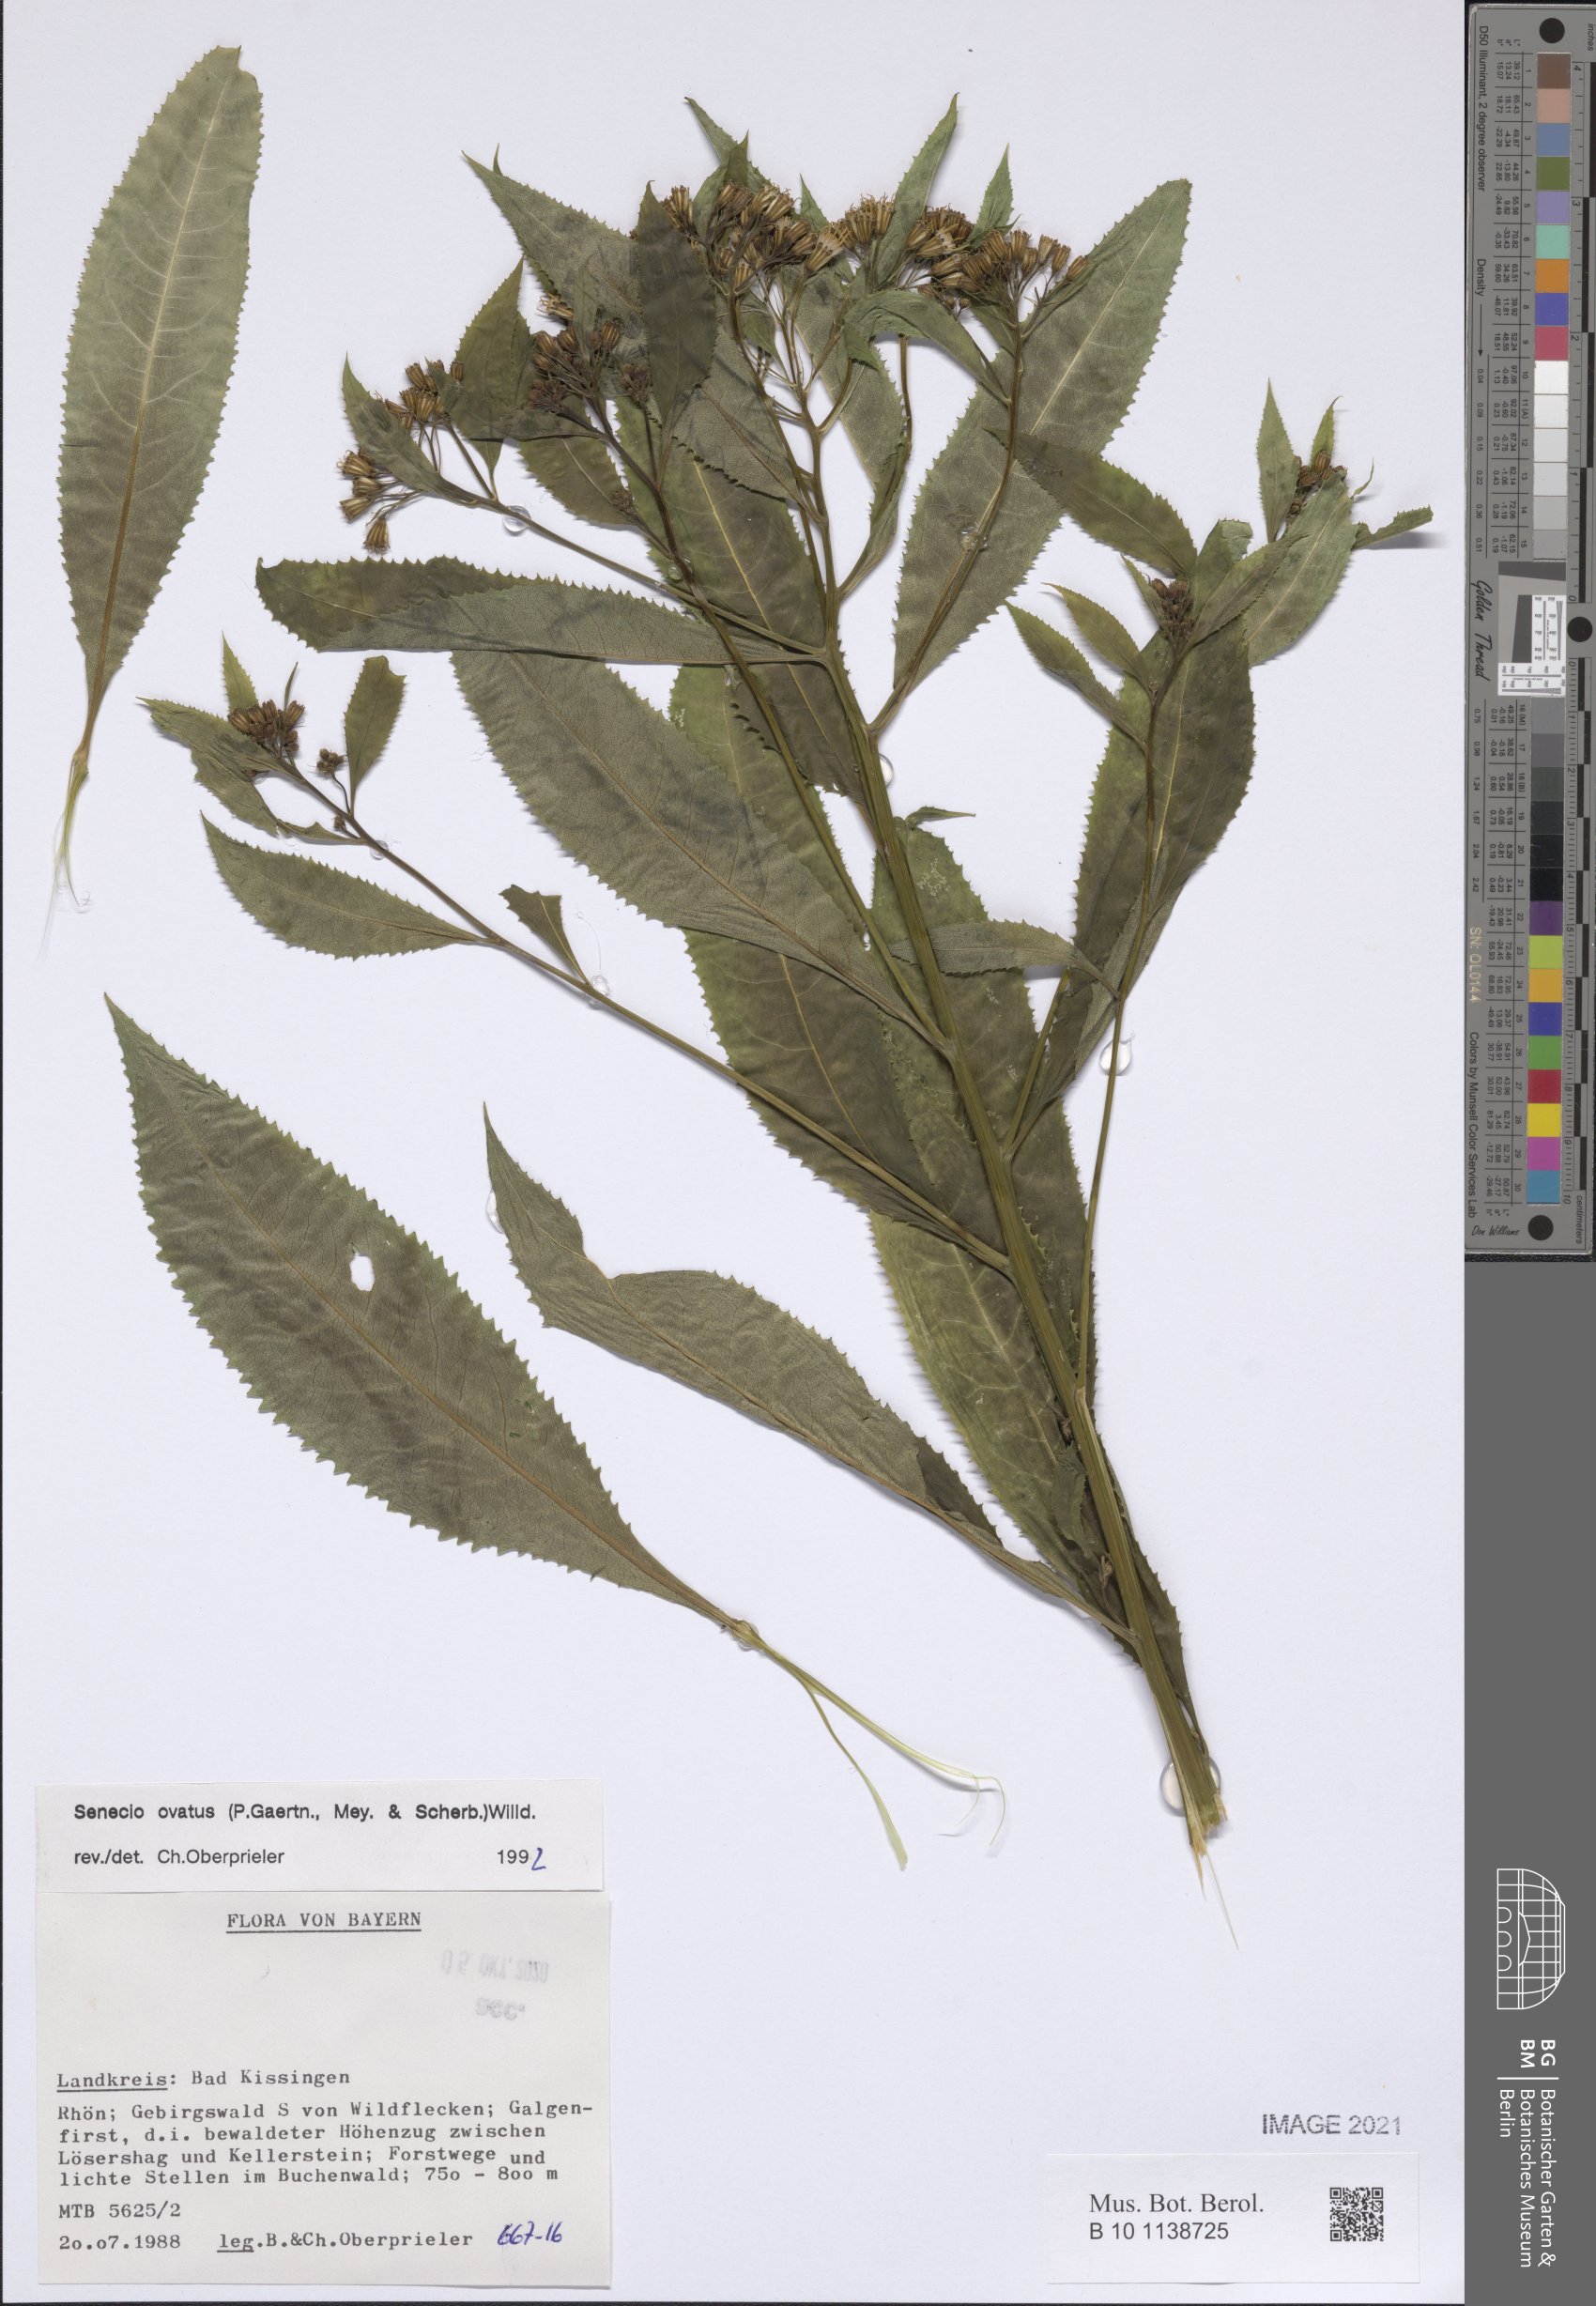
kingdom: Plantae
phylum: Tracheophyta
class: Magnoliopsida
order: Asterales
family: Asteraceae
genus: Senecio
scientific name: Senecio ovatus
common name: Wood ragwort
